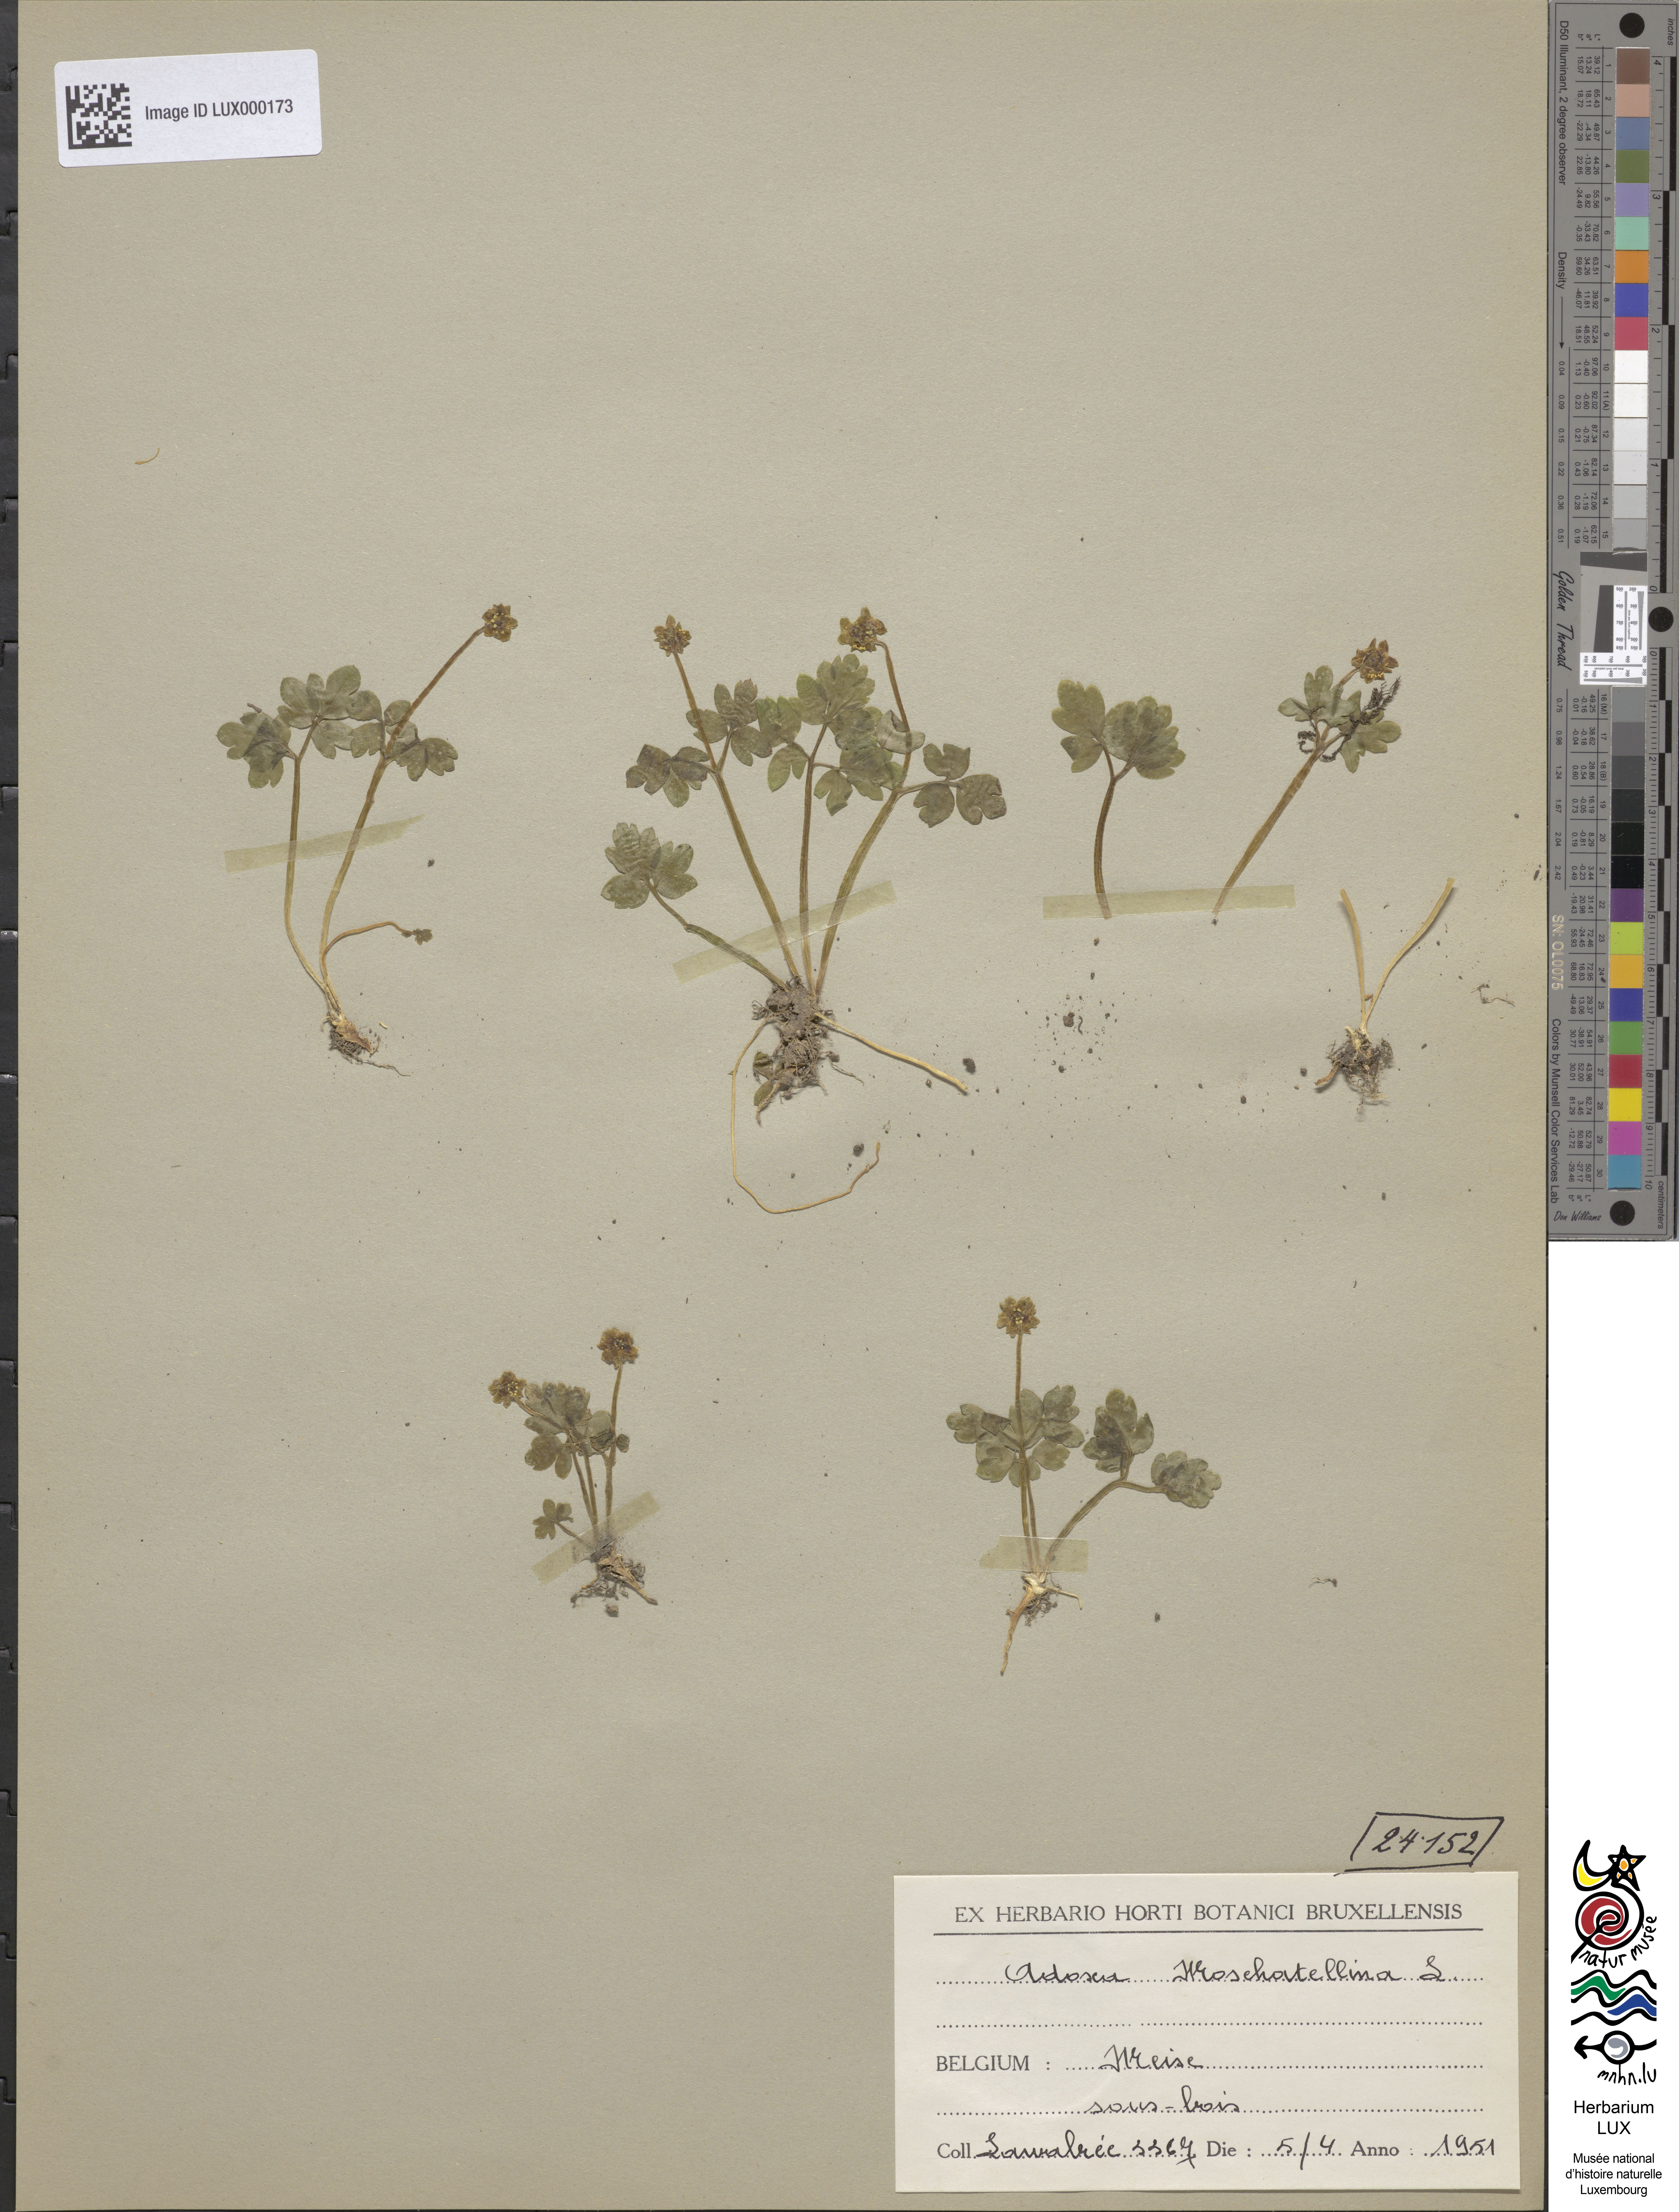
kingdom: Plantae
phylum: Tracheophyta
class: Magnoliopsida
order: Dipsacales
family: Viburnaceae
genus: Adoxa
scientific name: Adoxa moschatellina
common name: Moschatel
